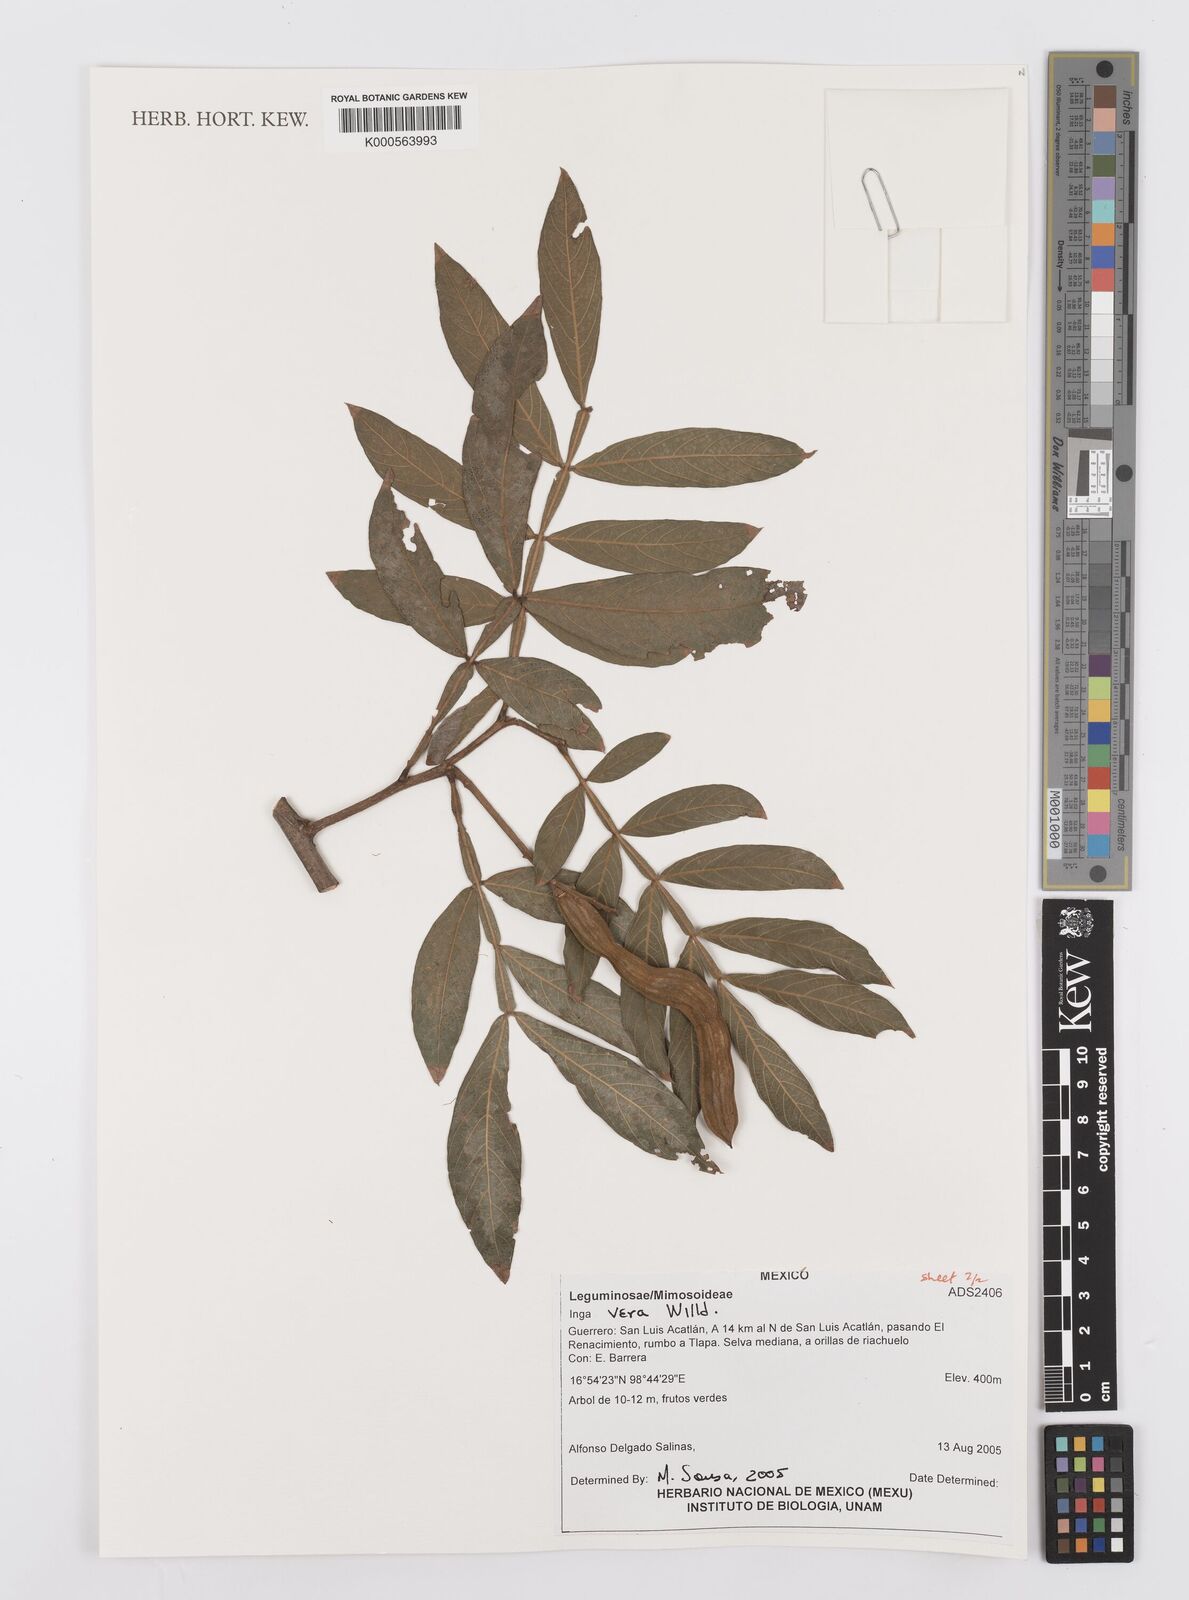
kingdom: Plantae
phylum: Tracheophyta
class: Magnoliopsida
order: Fabales
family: Fabaceae
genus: Inga
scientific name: Inga vera
